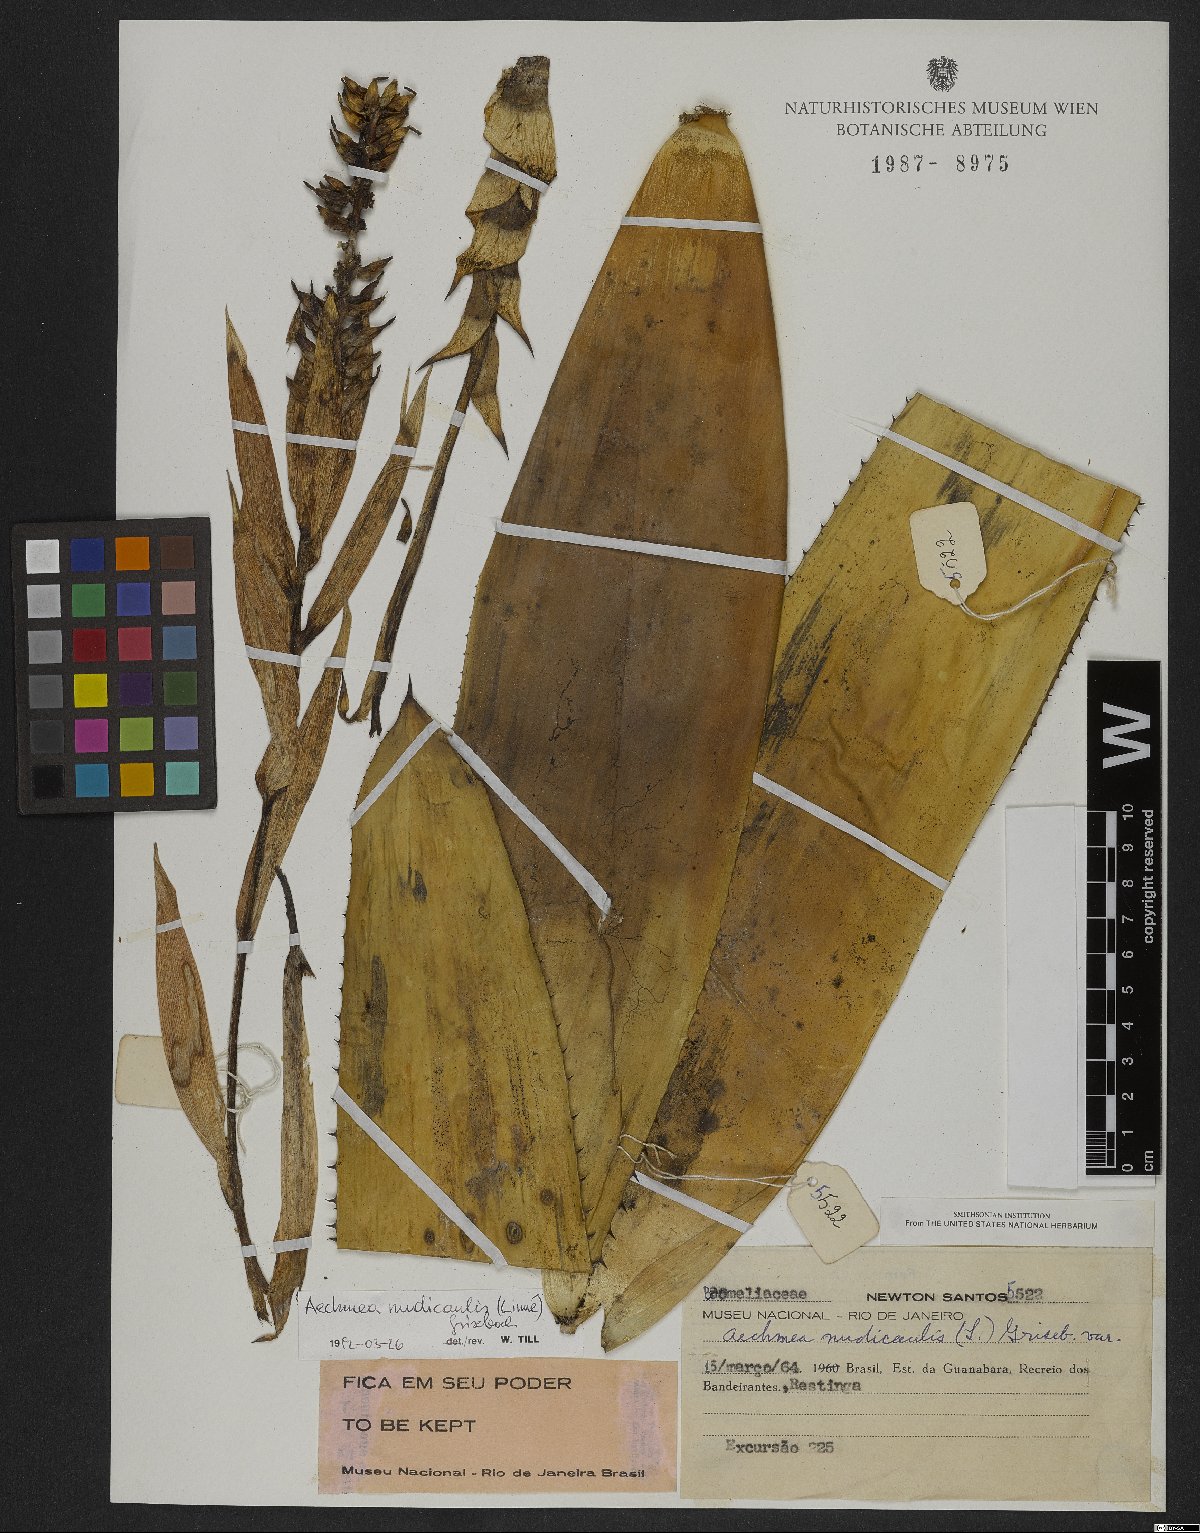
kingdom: Plantae
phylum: Tracheophyta
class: Liliopsida
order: Poales
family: Bromeliaceae
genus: Aechmea
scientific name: Aechmea nudicaulis
